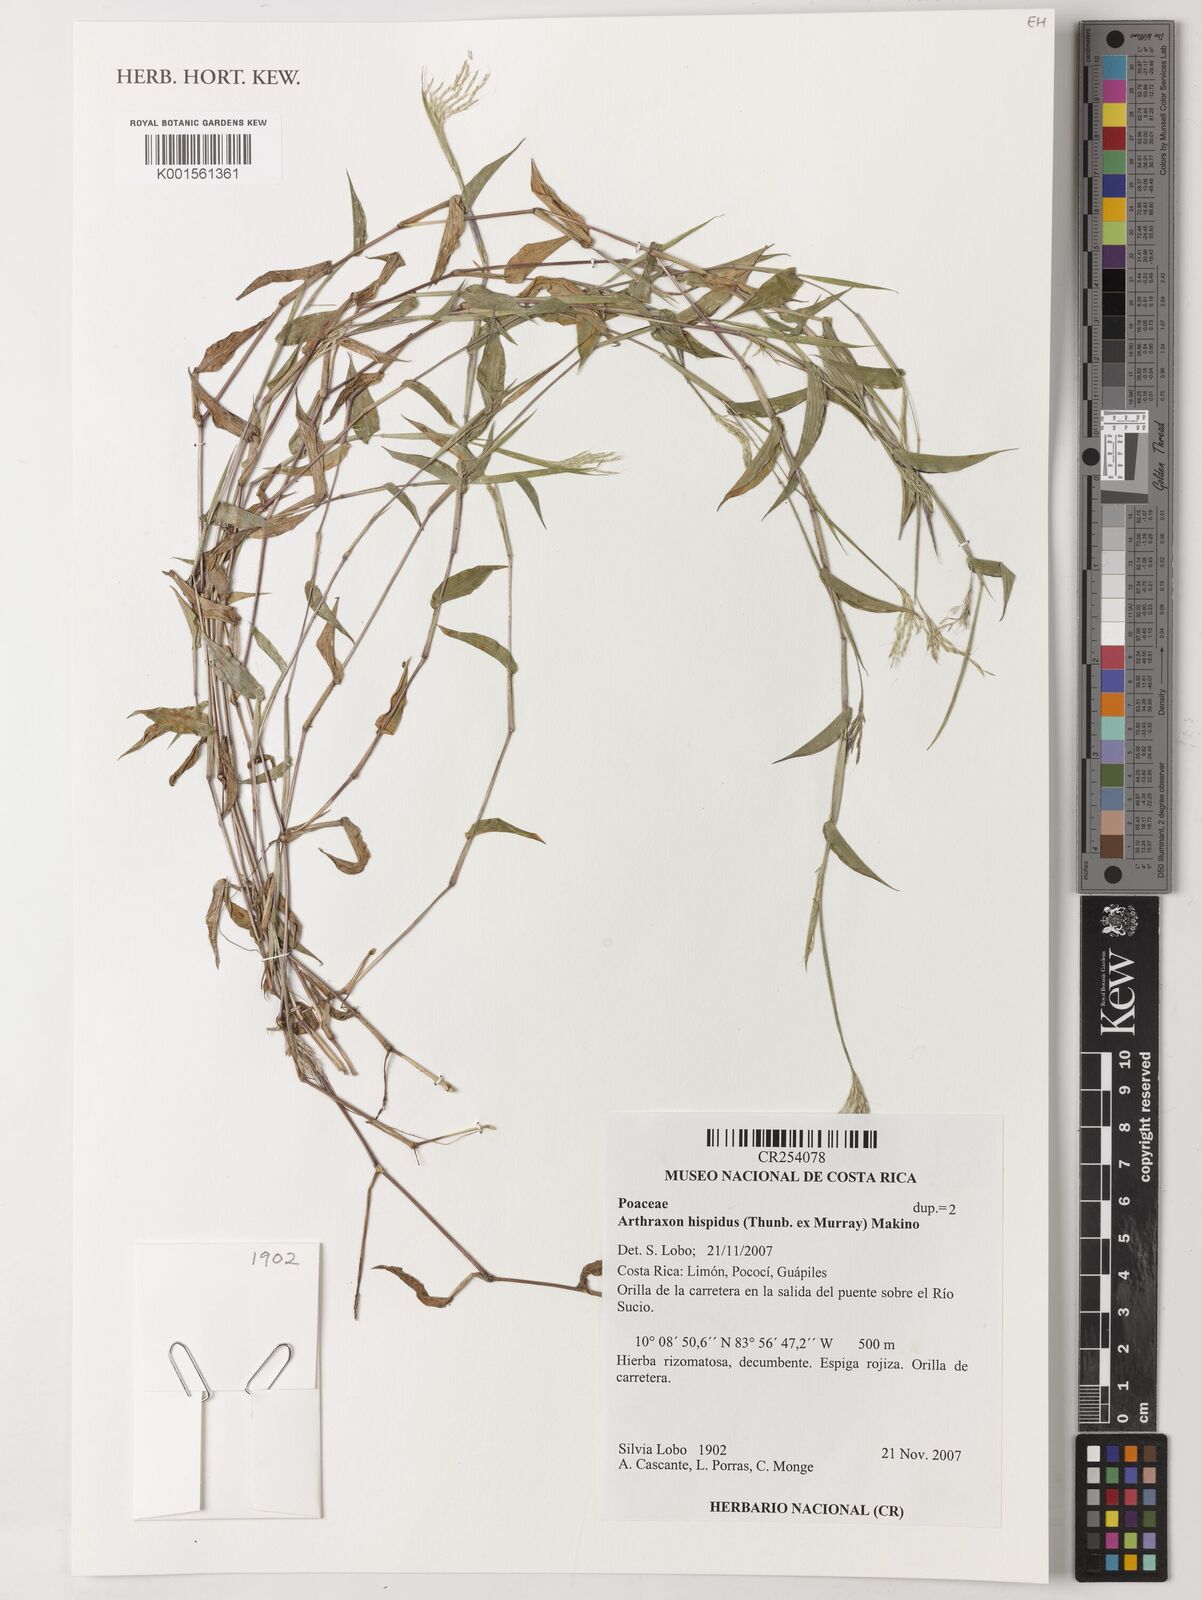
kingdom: Plantae
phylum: Tracheophyta
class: Liliopsida
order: Poales
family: Poaceae
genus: Arthraxon
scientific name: Arthraxon hispidus
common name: Small carpgrass
